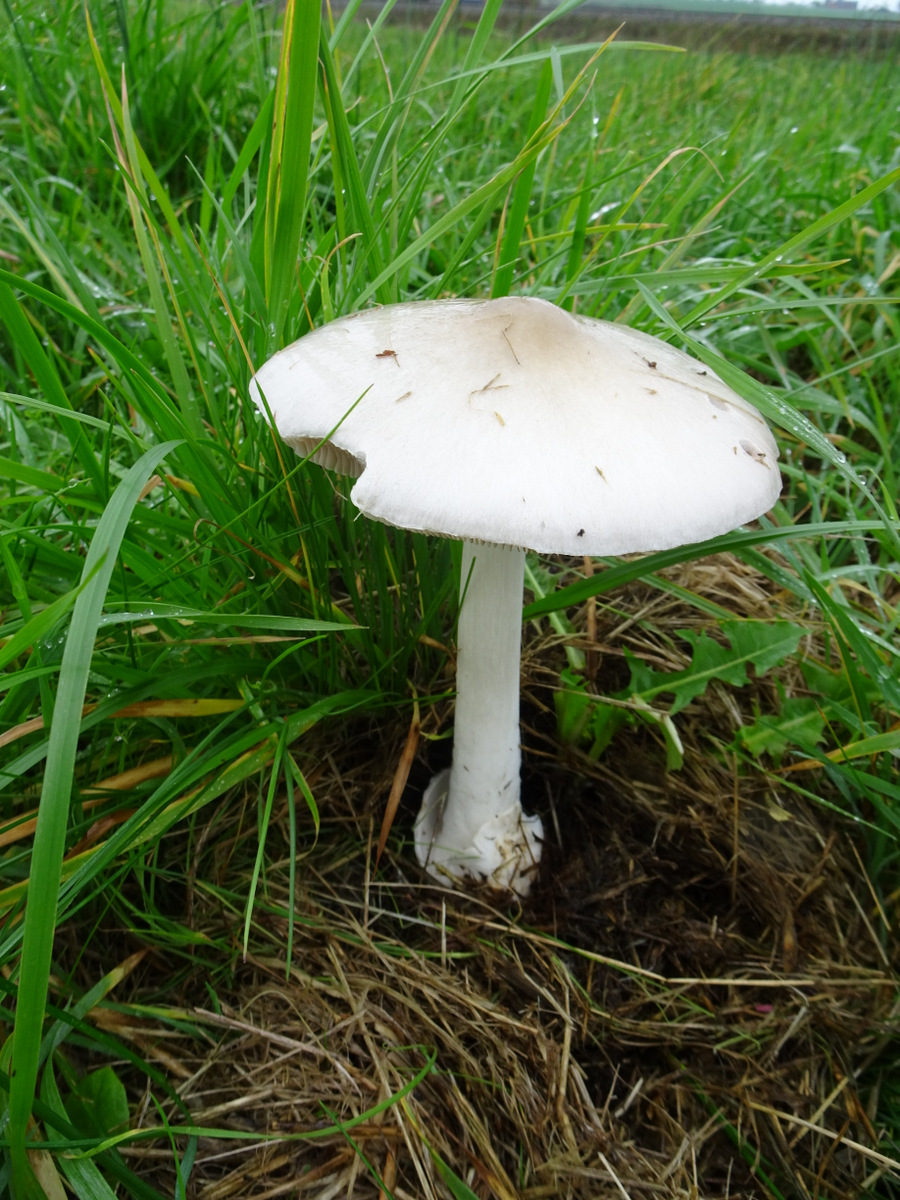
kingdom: Fungi
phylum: Basidiomycota
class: Agaricomycetes
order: Agaricales
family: Pluteaceae
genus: Volvopluteus
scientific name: Volvopluteus gloiocephalus
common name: høj posesvamp
